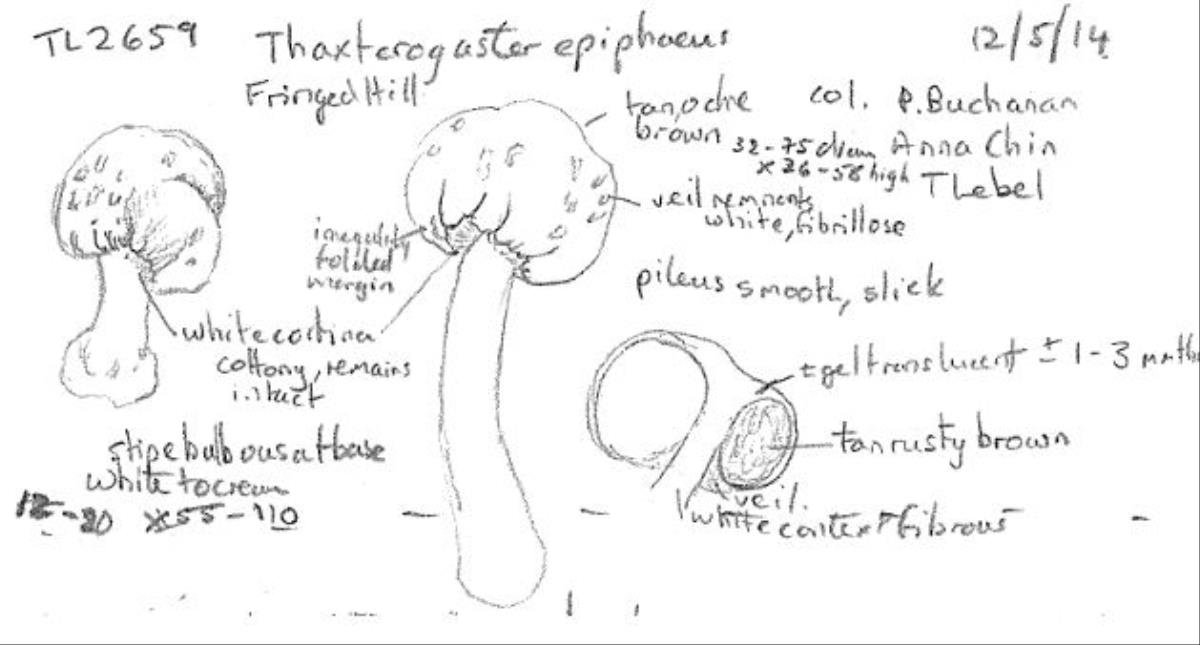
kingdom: Fungi
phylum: Basidiomycota
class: Agaricomycetes
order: Agaricales
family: Cortinariaceae
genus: Cortinarius
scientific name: Cortinarius epiphaeus
